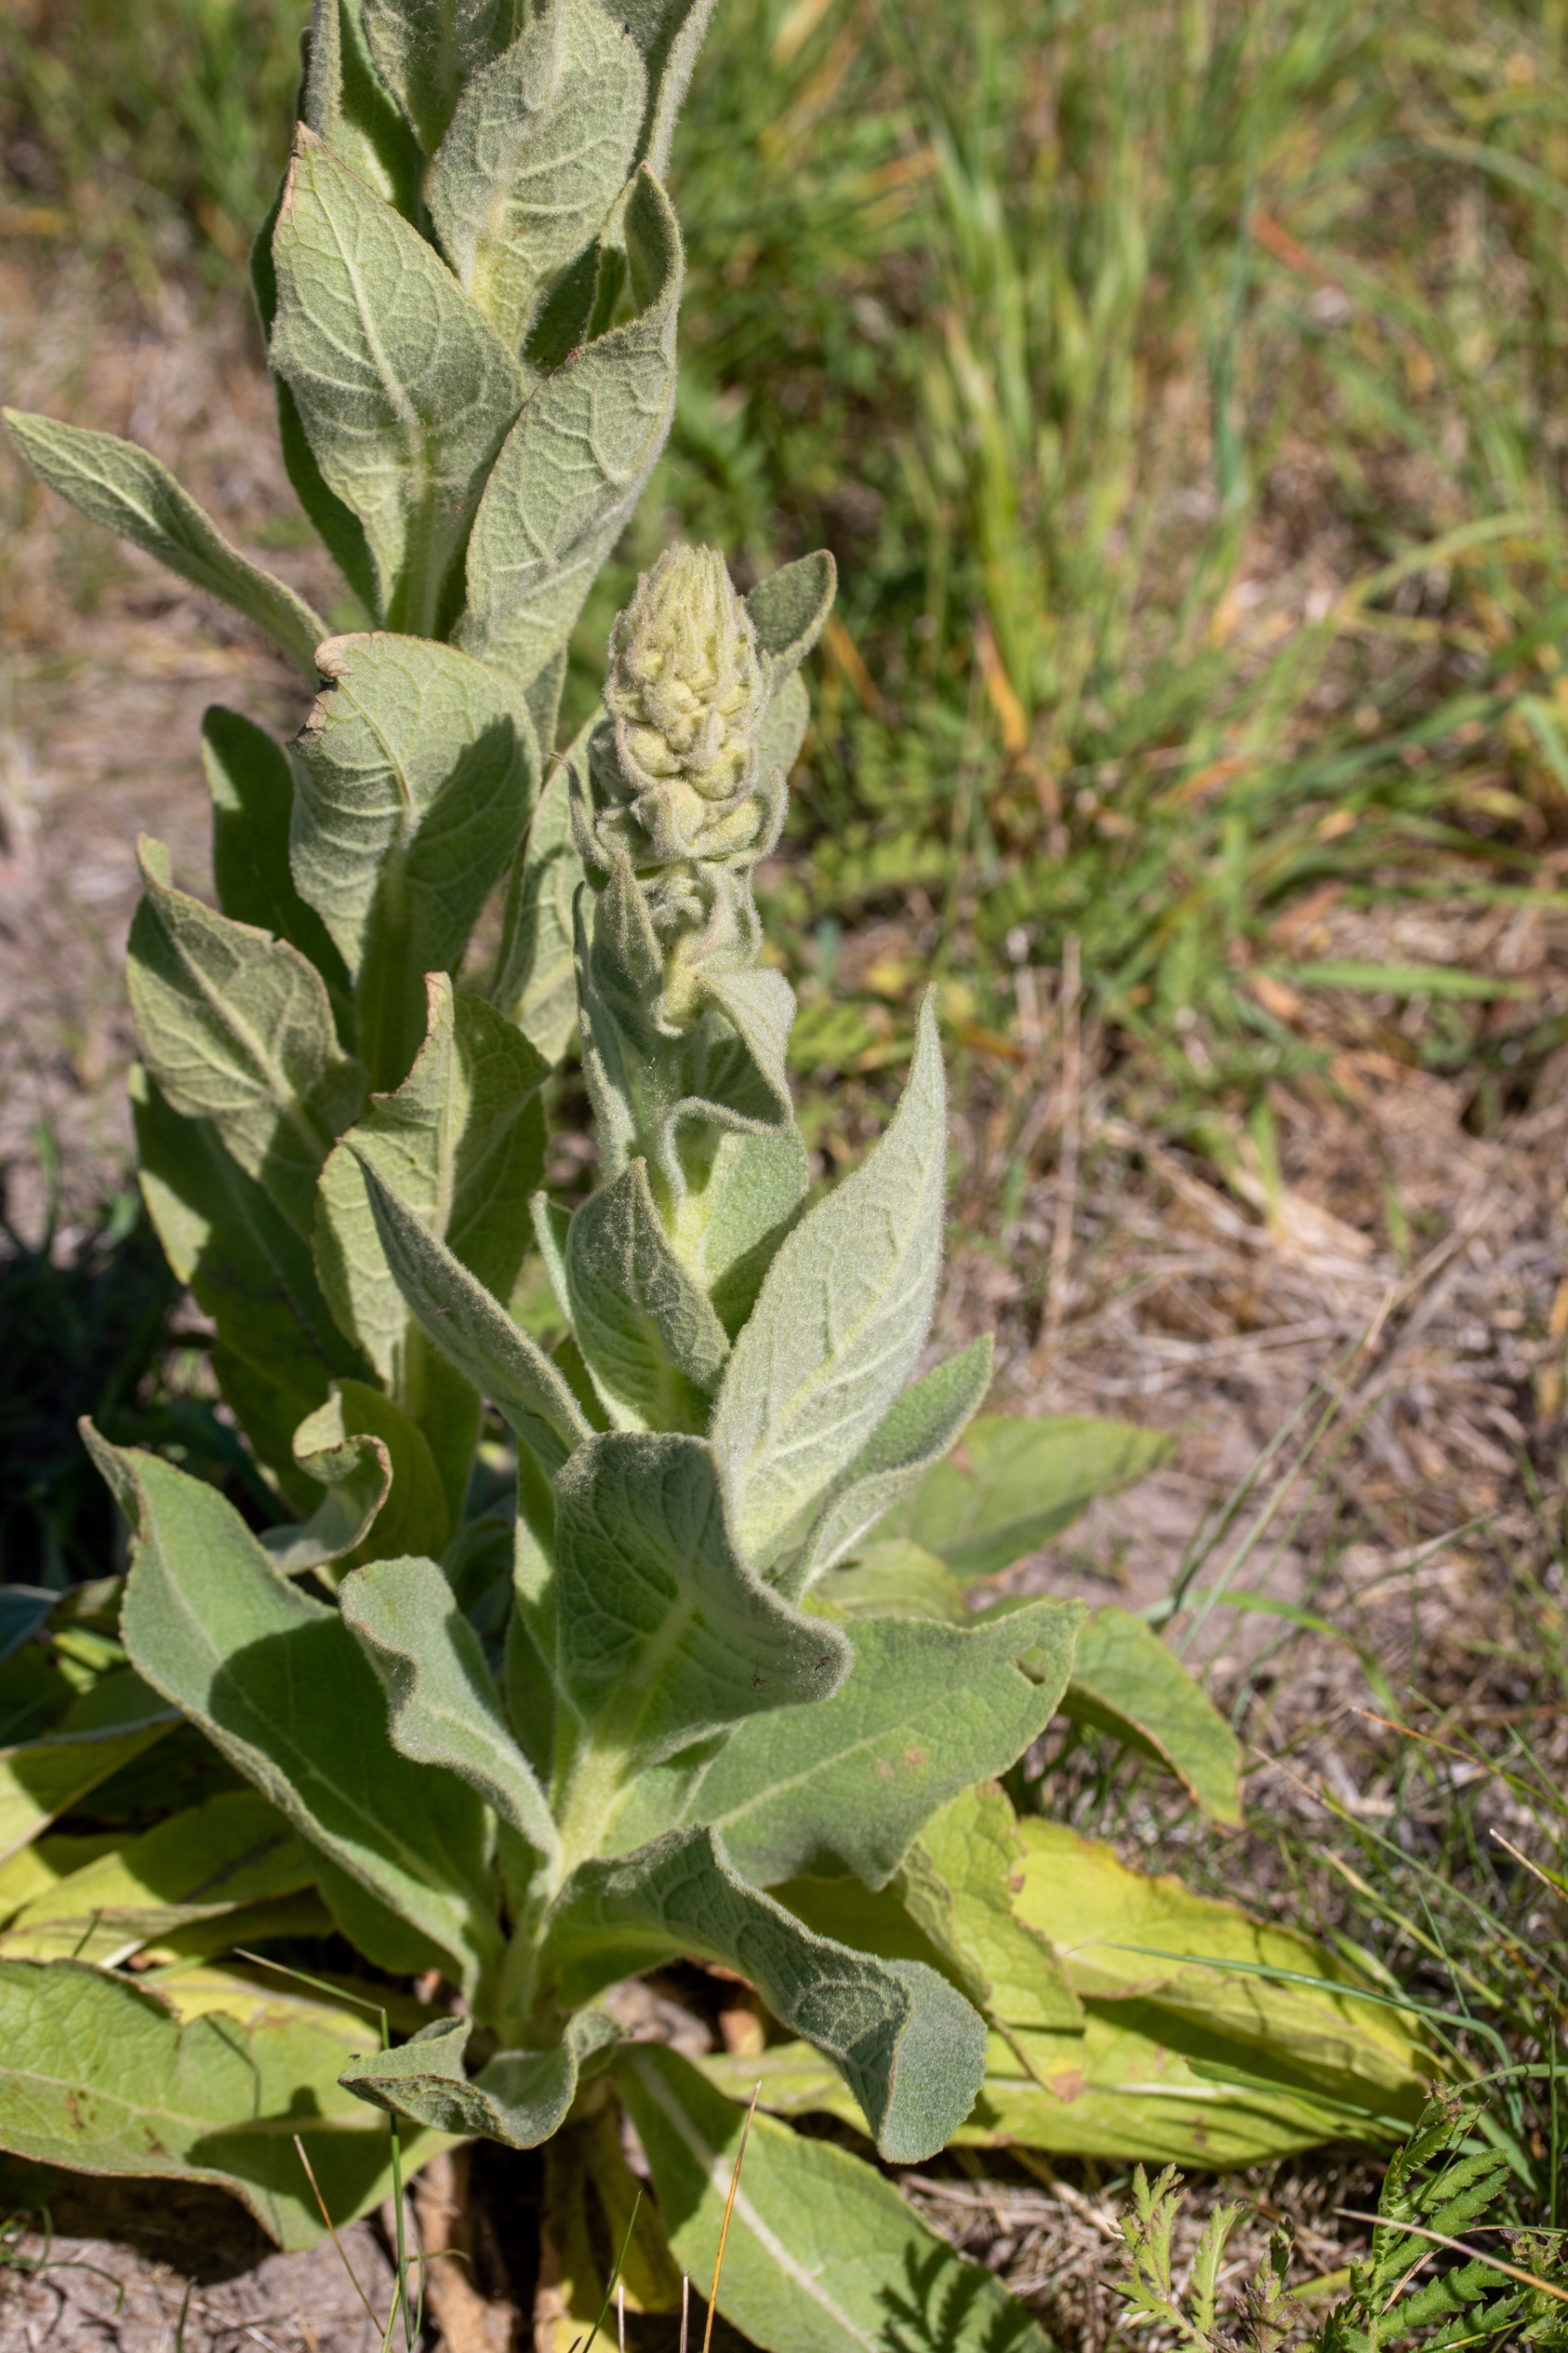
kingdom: Plantae
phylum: Tracheophyta
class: Magnoliopsida
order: Lamiales
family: Scrophulariaceae
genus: Verbascum
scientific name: Verbascum densiflorum
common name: Uldbladet kongelys
